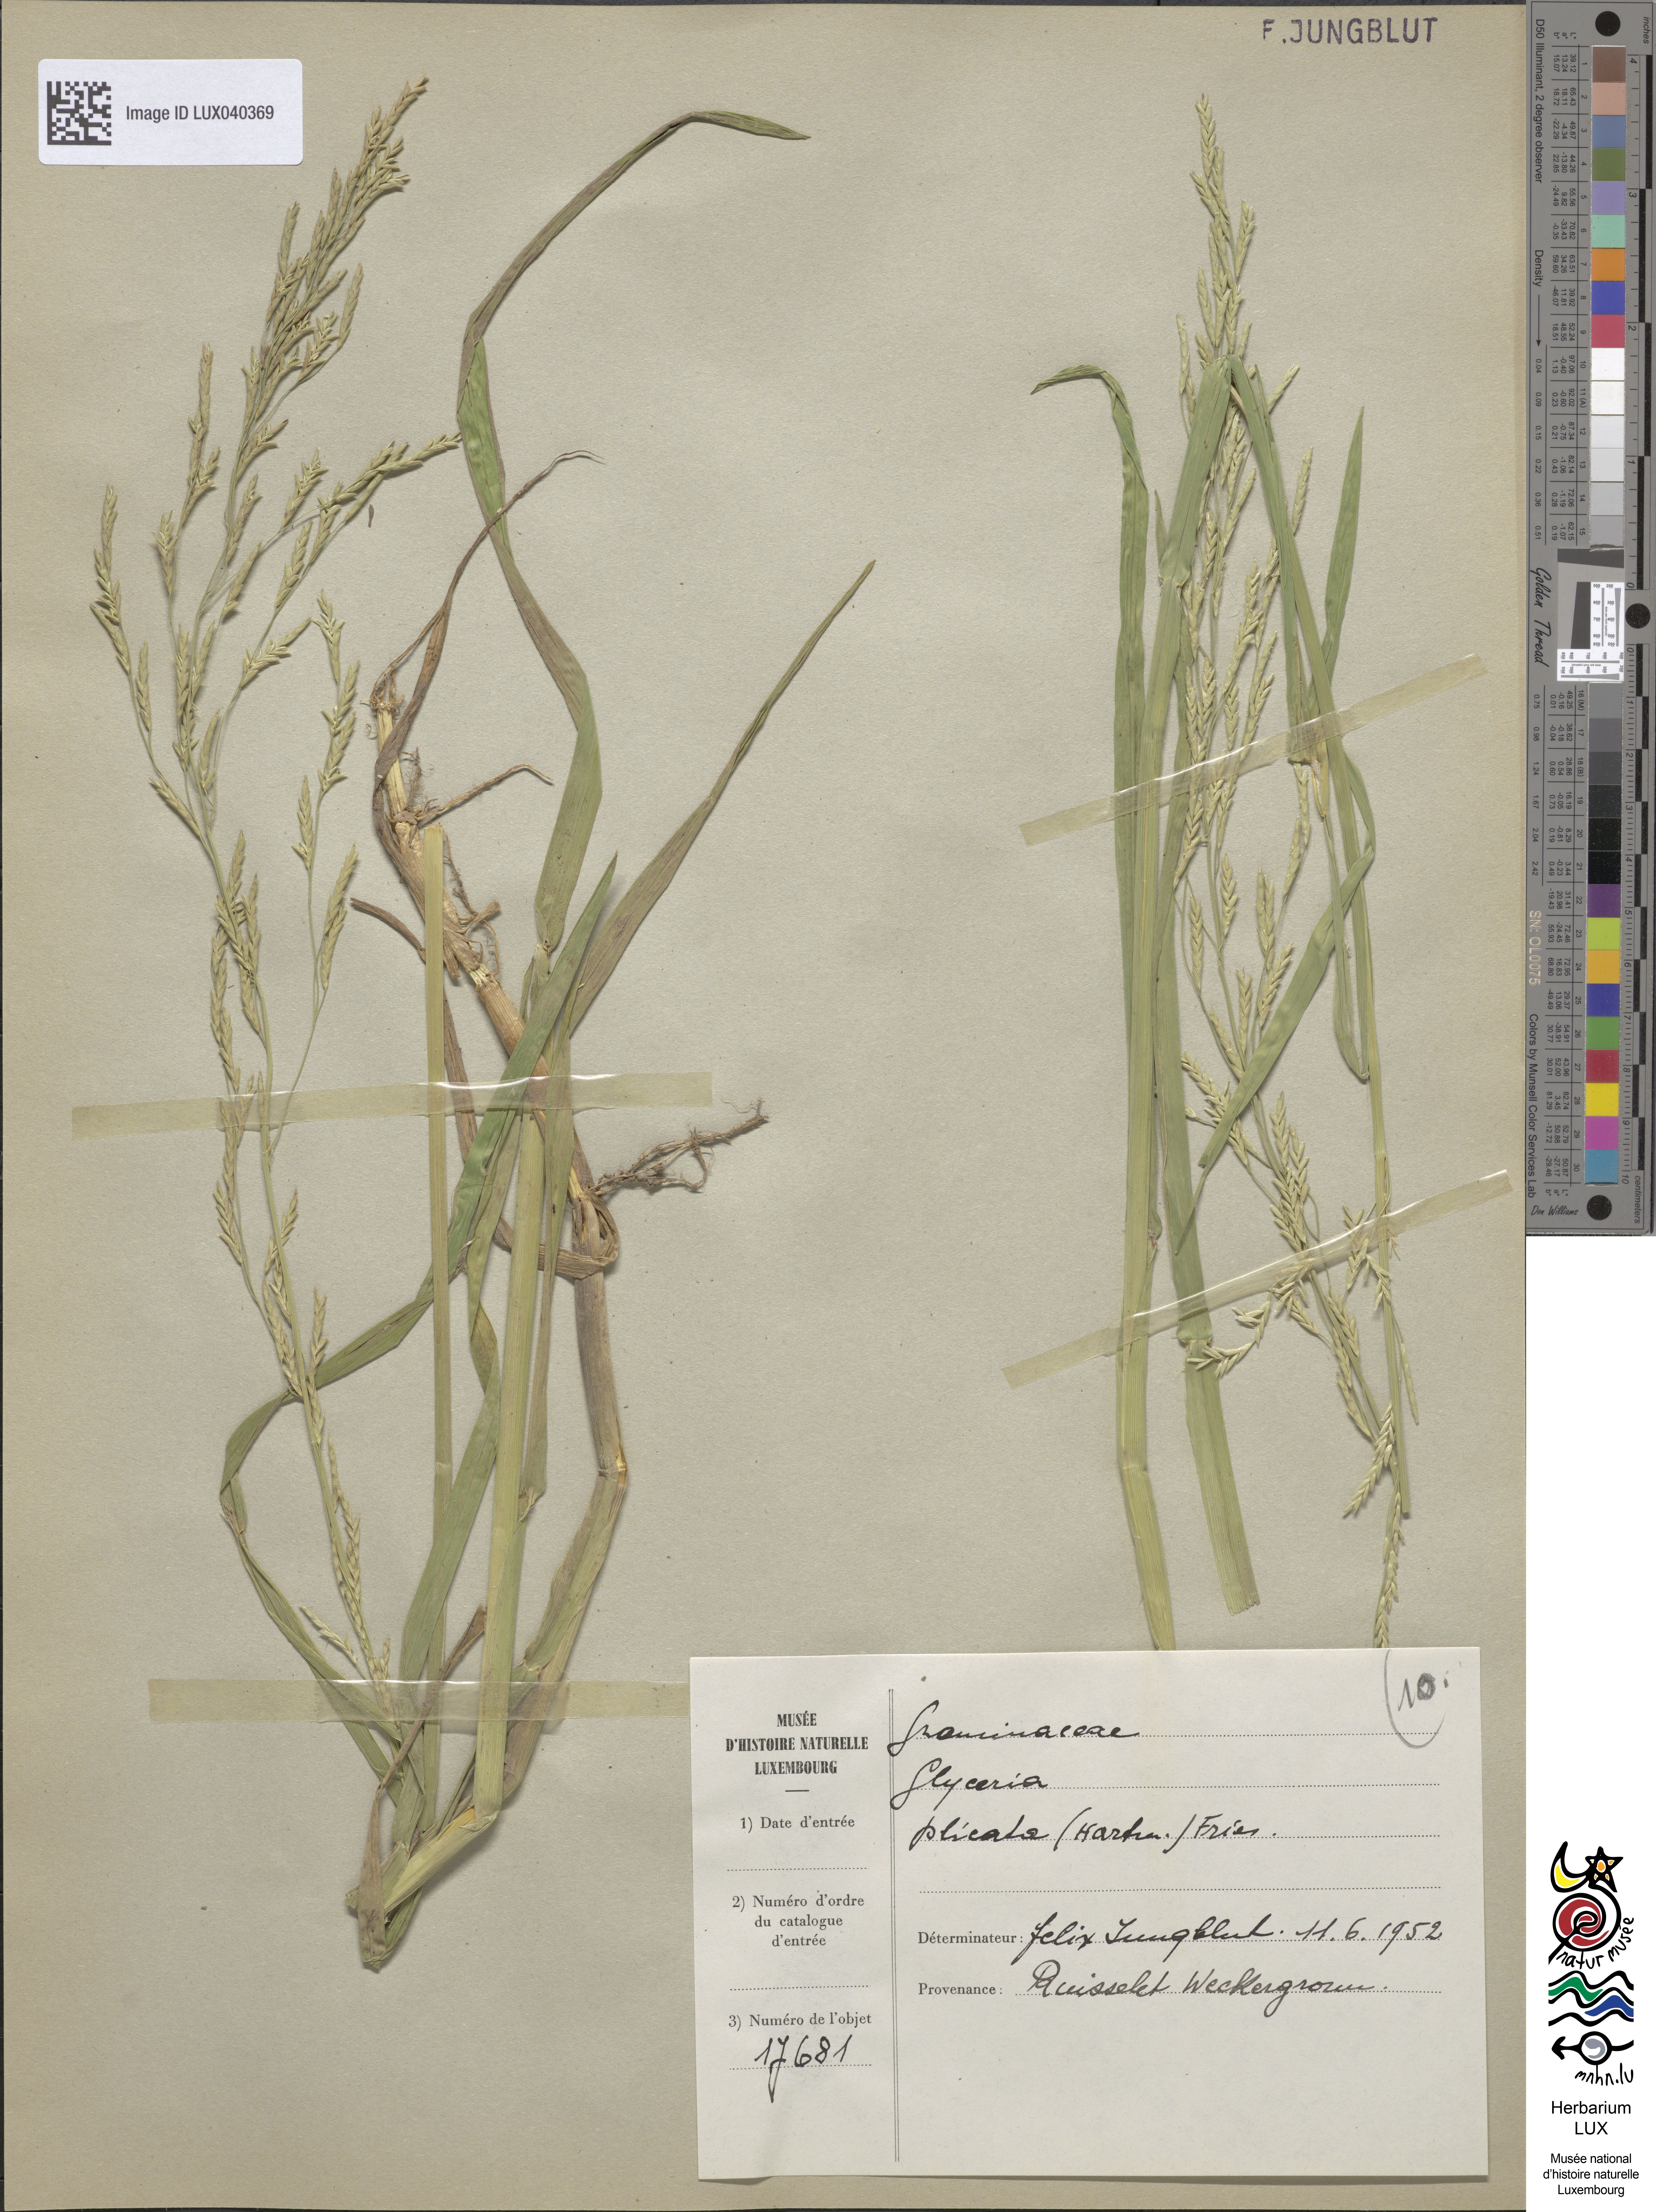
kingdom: Plantae
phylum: Tracheophyta
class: Liliopsida
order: Poales
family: Poaceae
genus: Glyceria
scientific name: Glyceria notata
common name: Plicate sweet-grass
